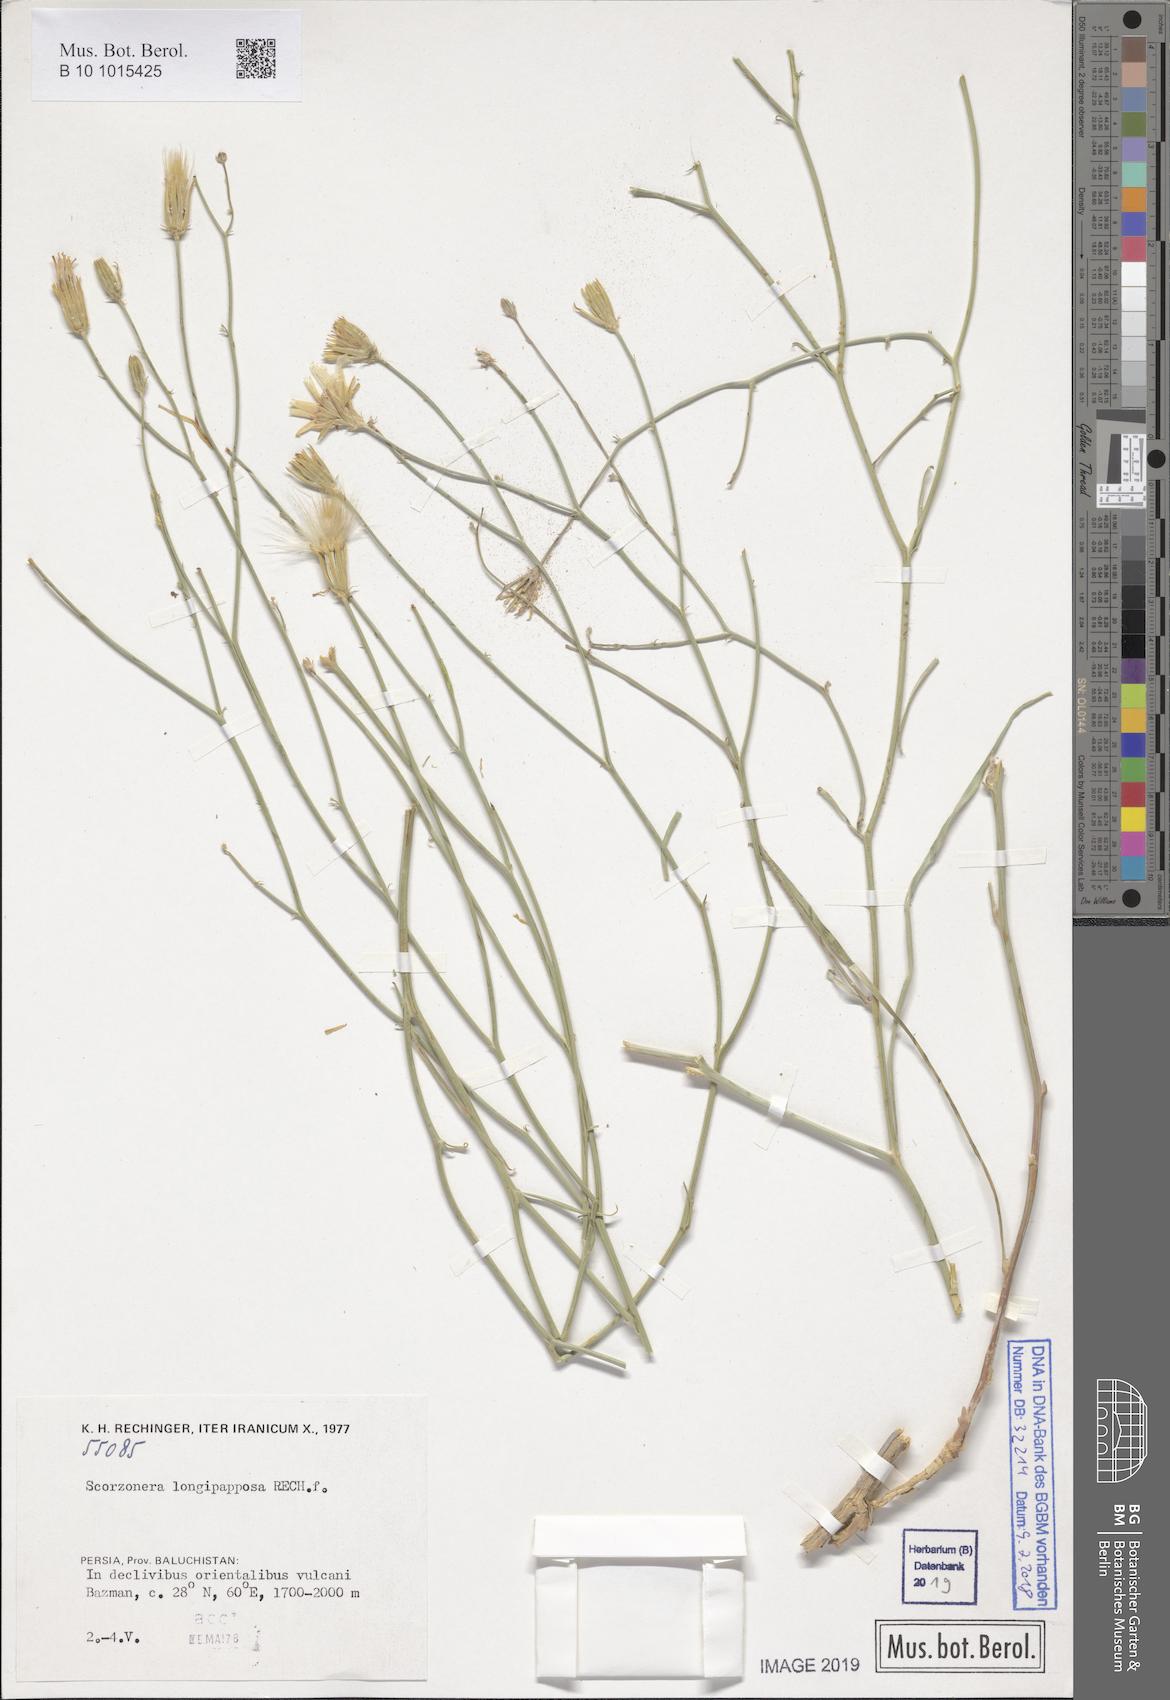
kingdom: Plantae
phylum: Tracheophyta
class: Magnoliopsida
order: Asterales
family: Asteraceae
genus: Ramaliella
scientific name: Ramaliella longipapposa
